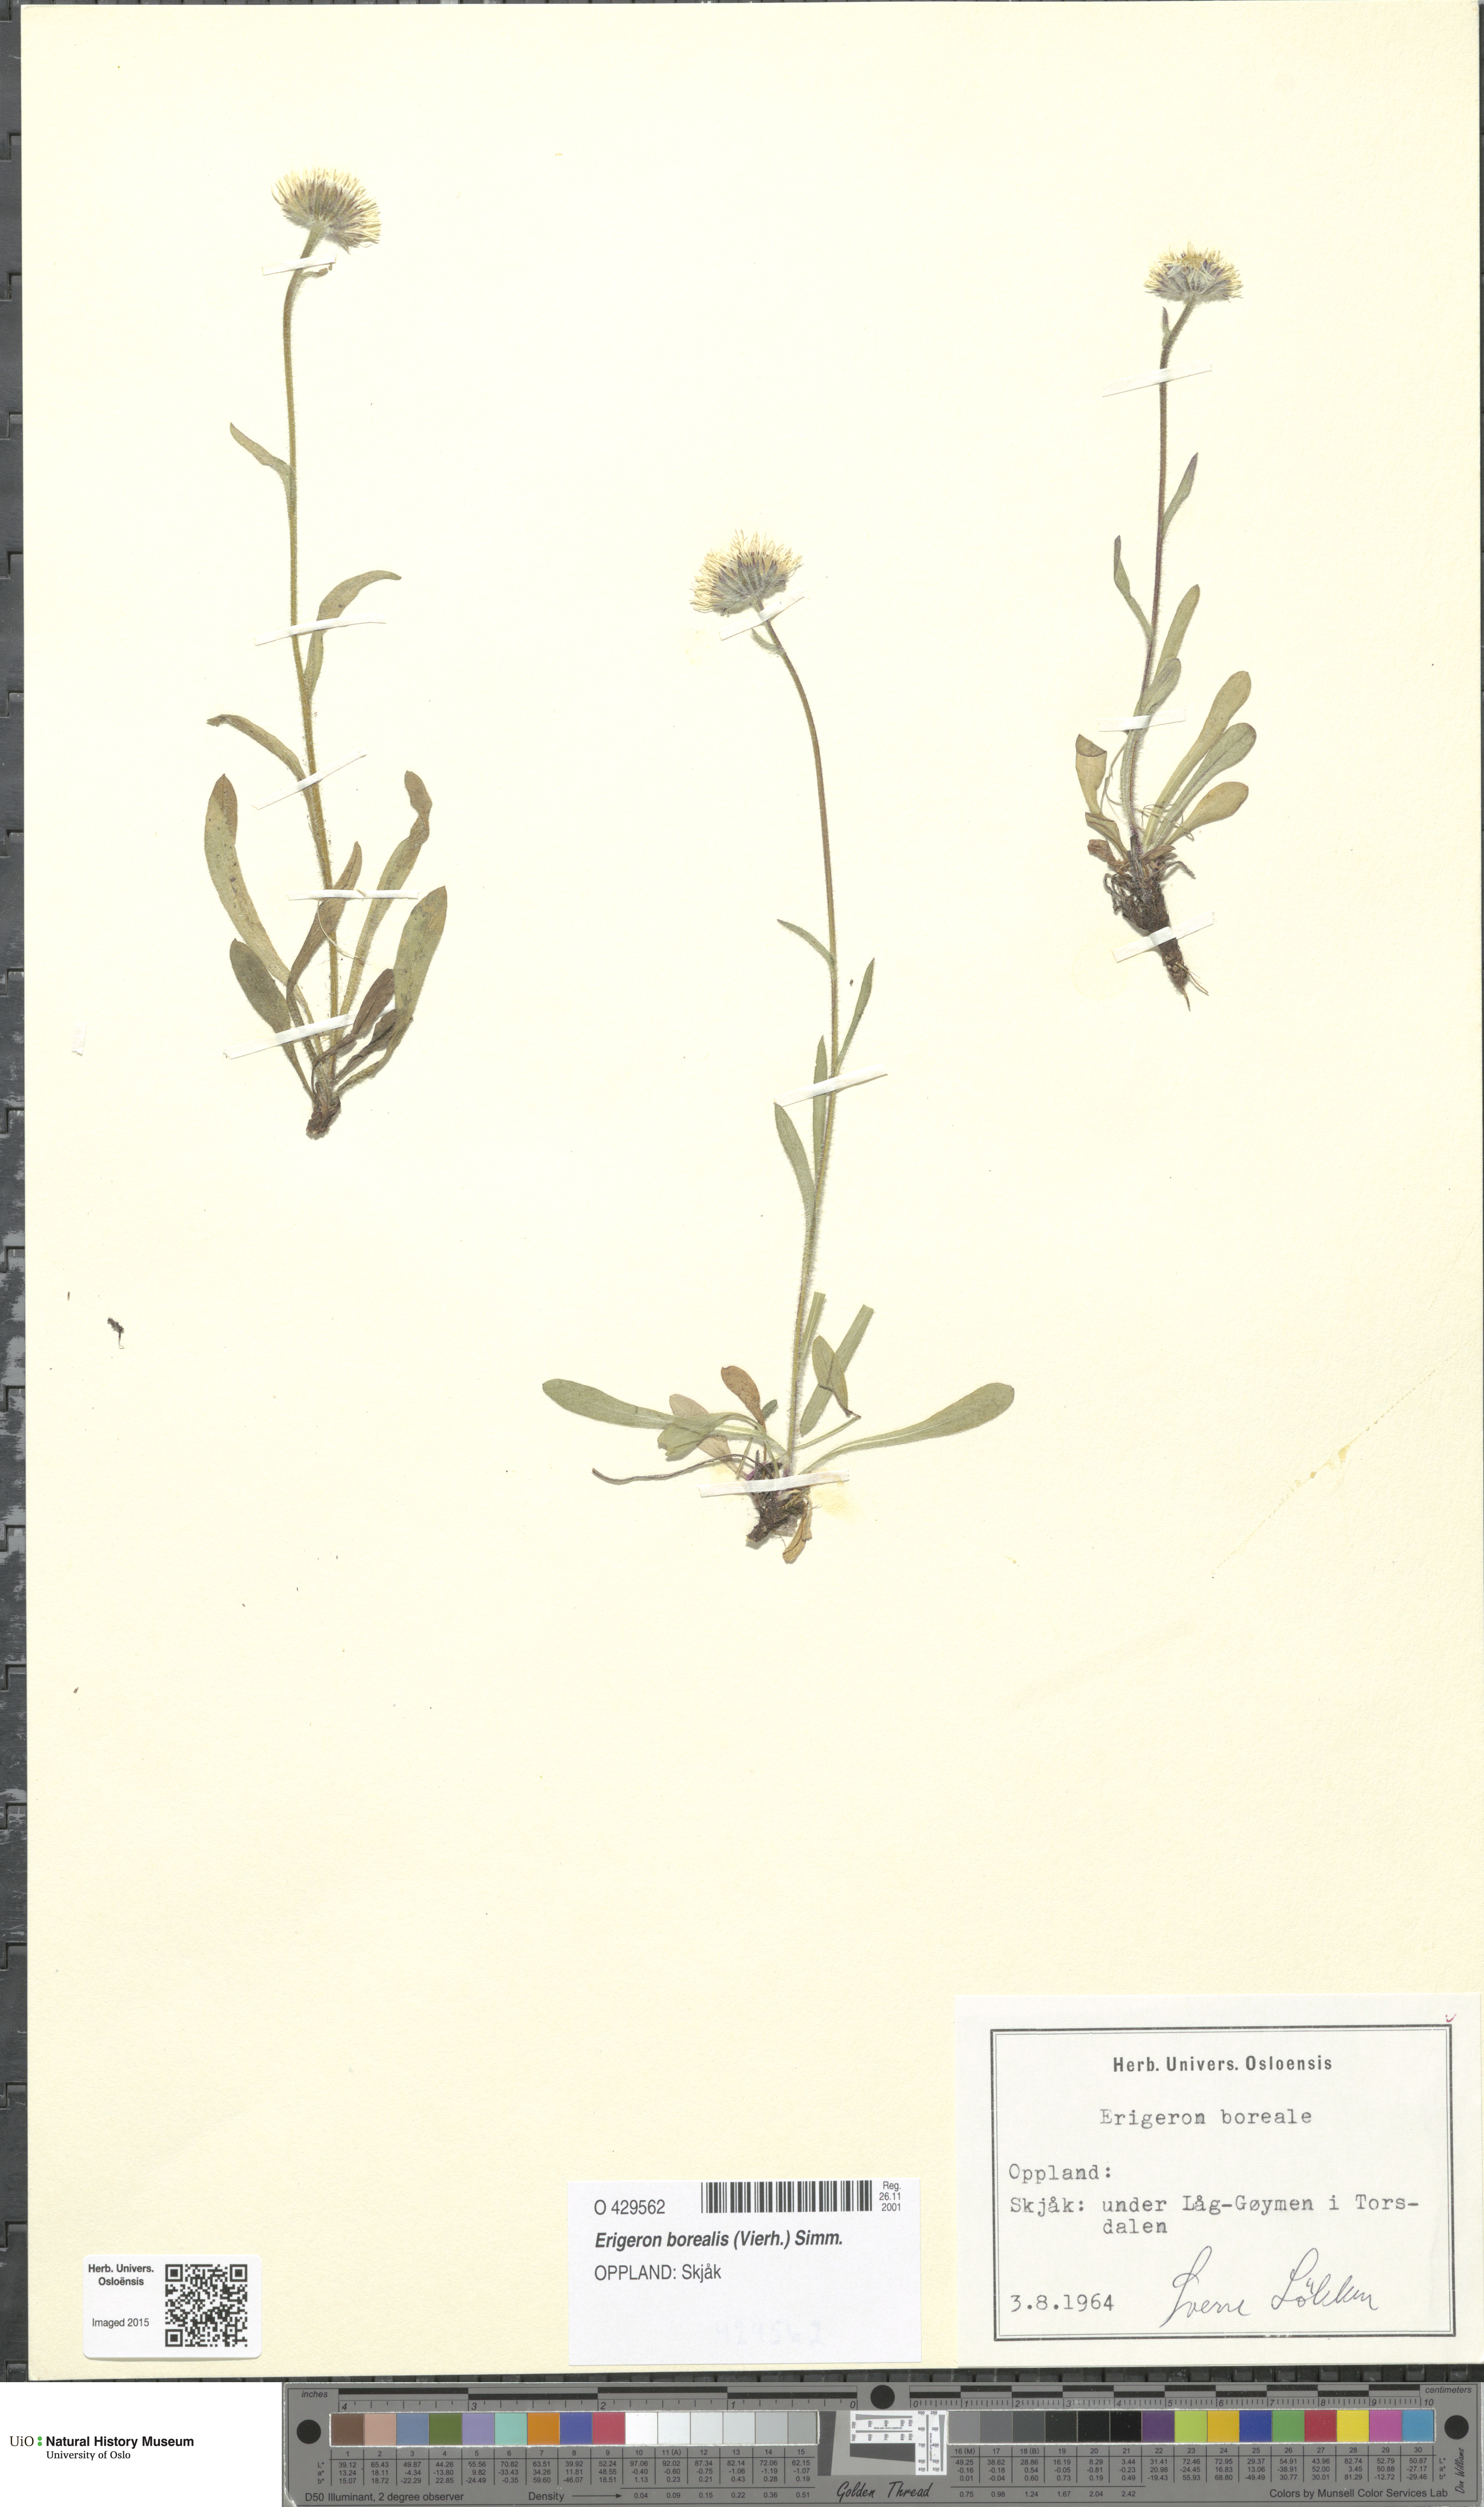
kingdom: Plantae
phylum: Tracheophyta
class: Magnoliopsida
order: Asterales
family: Asteraceae
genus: Erigeron
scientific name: Erigeron borealis
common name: Alpine fleabane
